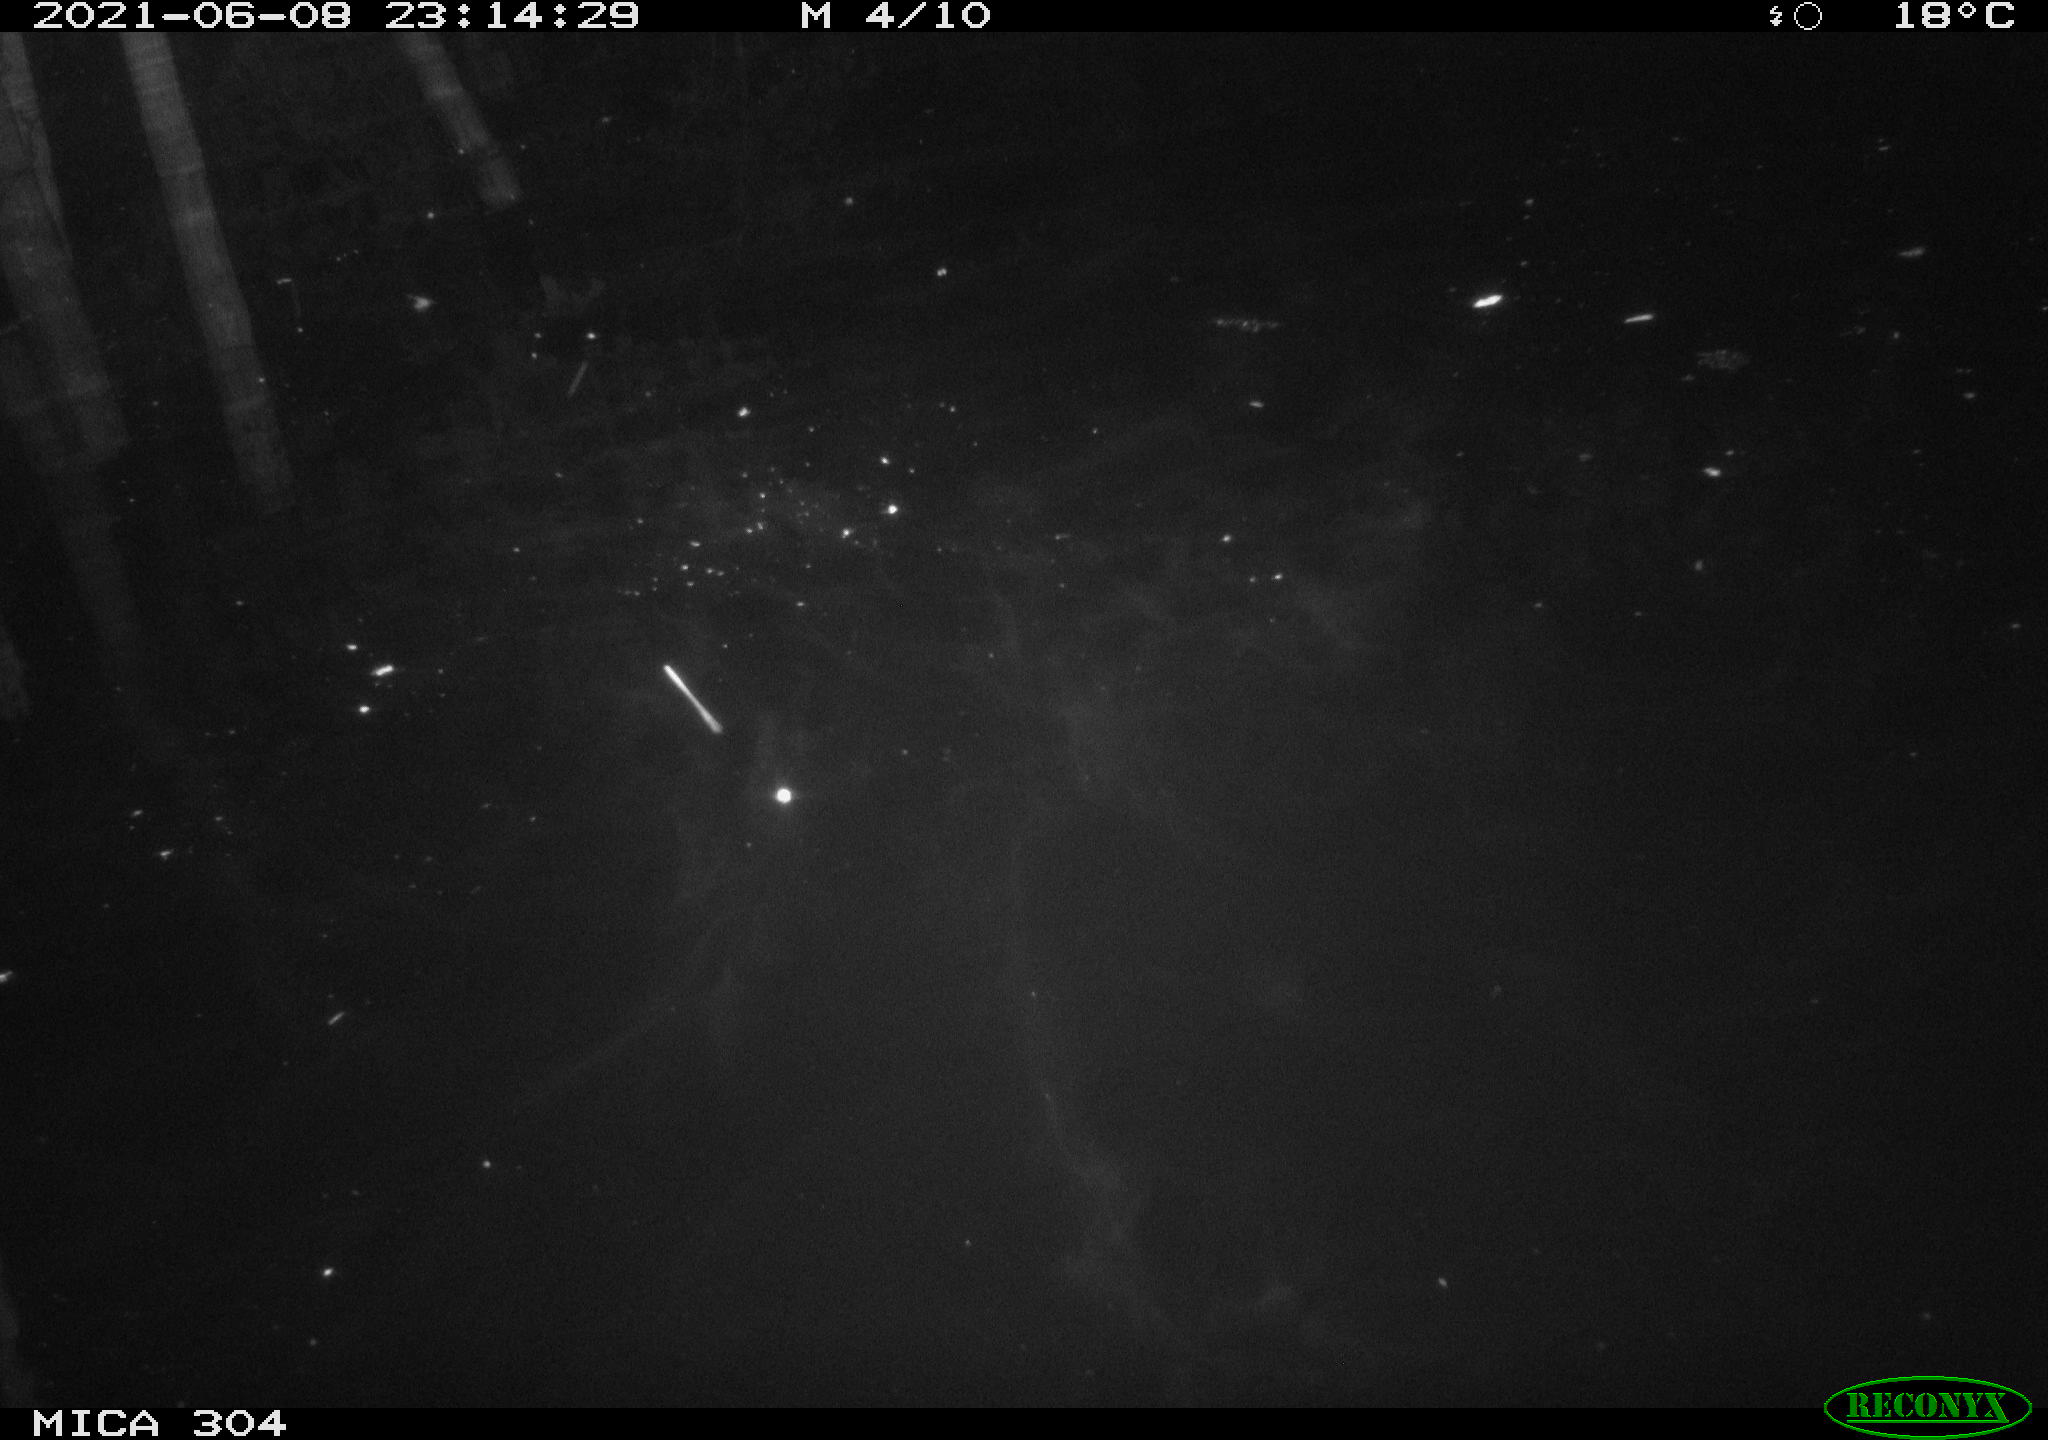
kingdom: Animalia
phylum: Chordata
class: Aves
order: Anseriformes
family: Anatidae
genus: Anas
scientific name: Anas platyrhynchos
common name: Mallard
